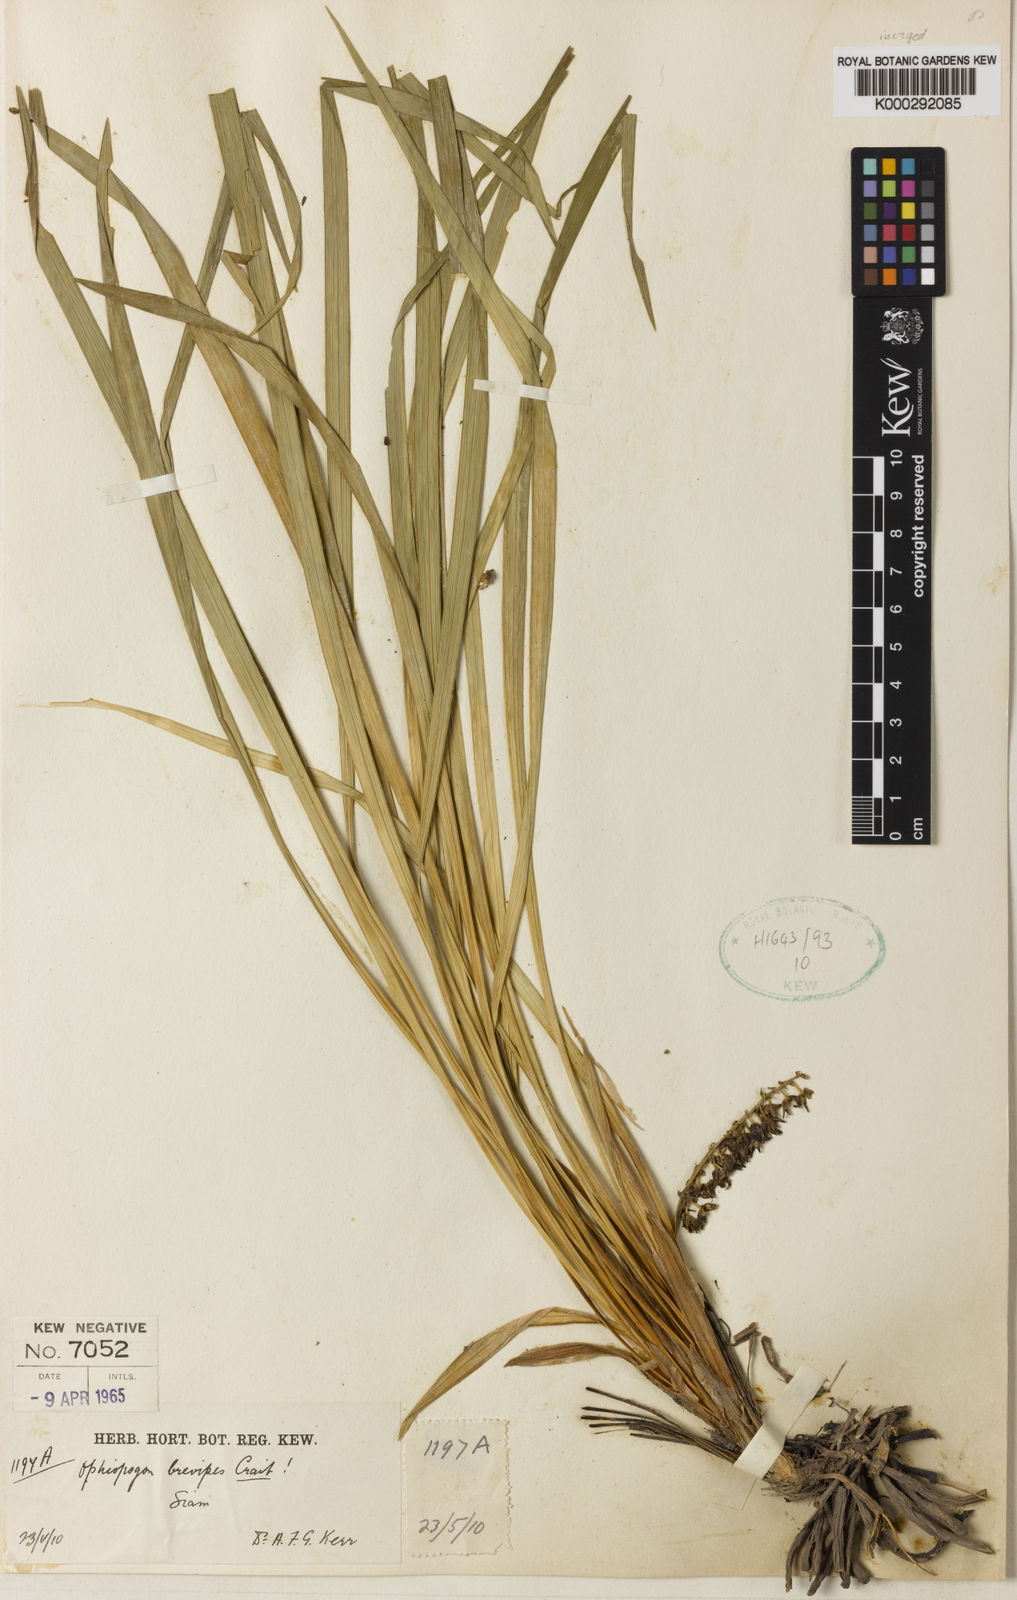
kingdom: Plantae
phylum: Tracheophyta
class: Liliopsida
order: Asparagales
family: Asparagaceae
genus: Ophiopogon
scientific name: Ophiopogon brevipes
